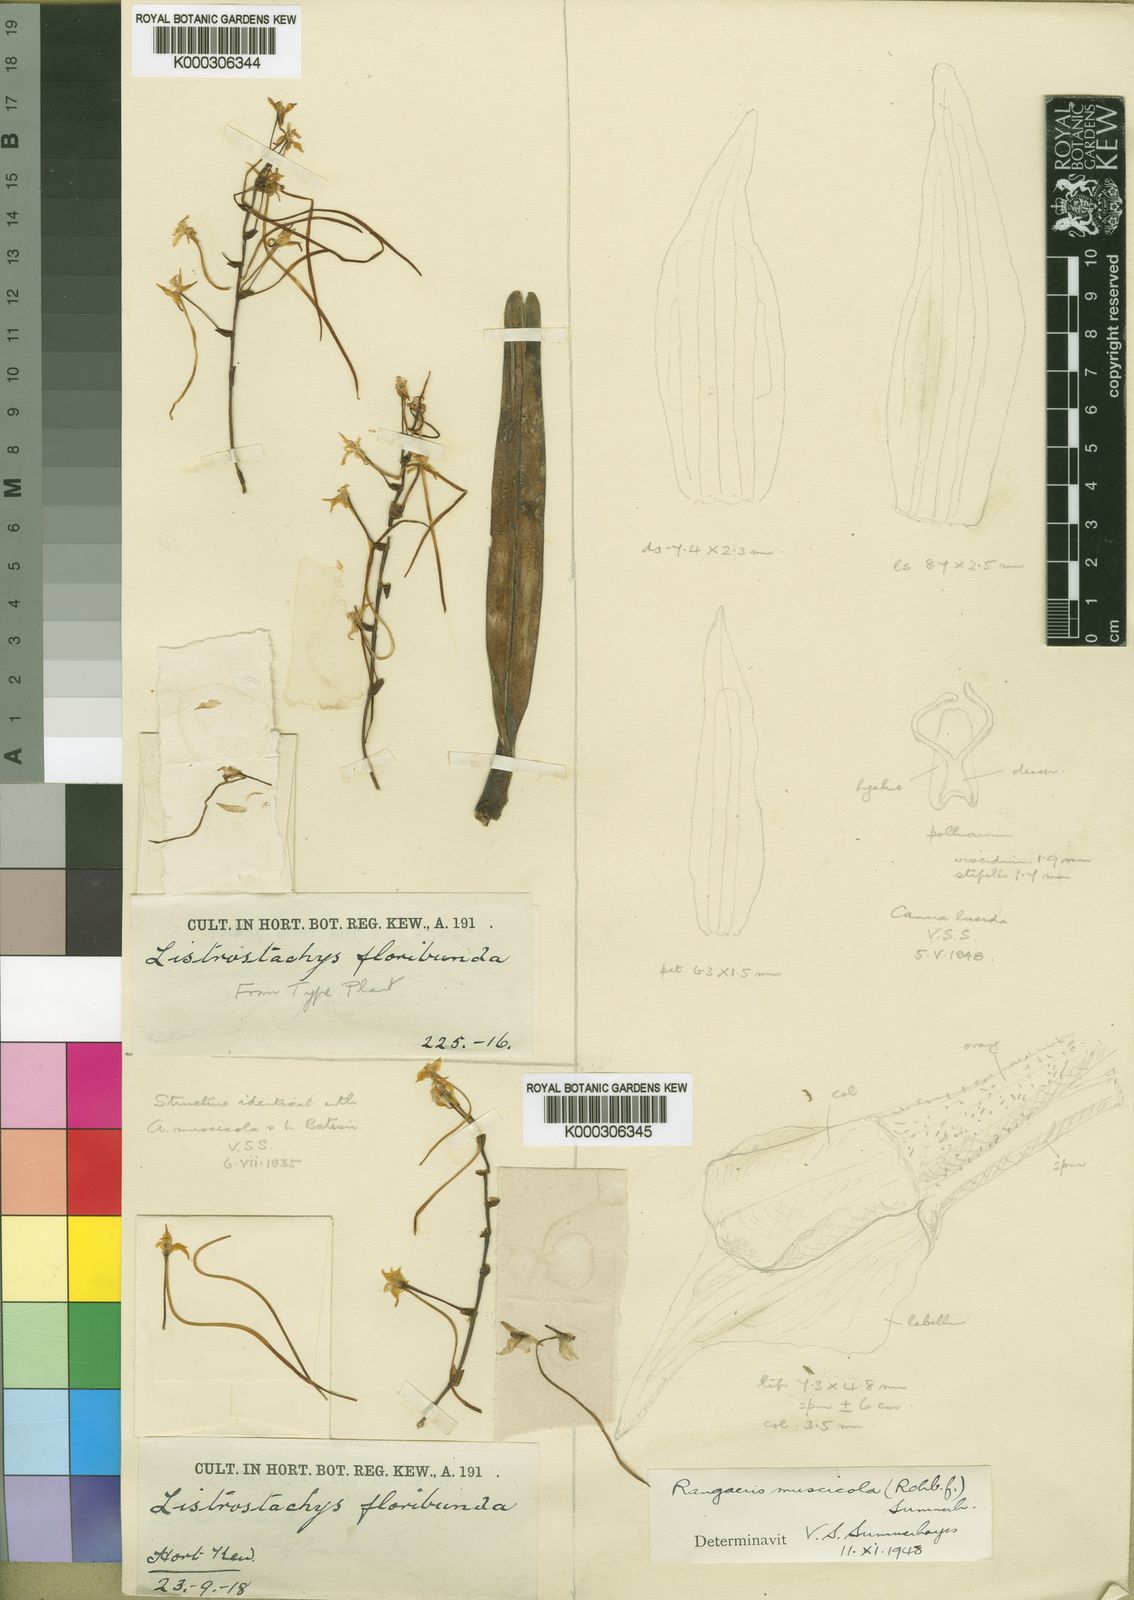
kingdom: Plantae
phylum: Tracheophyta
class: Liliopsida
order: Asparagales
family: Orchidaceae
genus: Rangaeris
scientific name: Rangaeris muscicola
